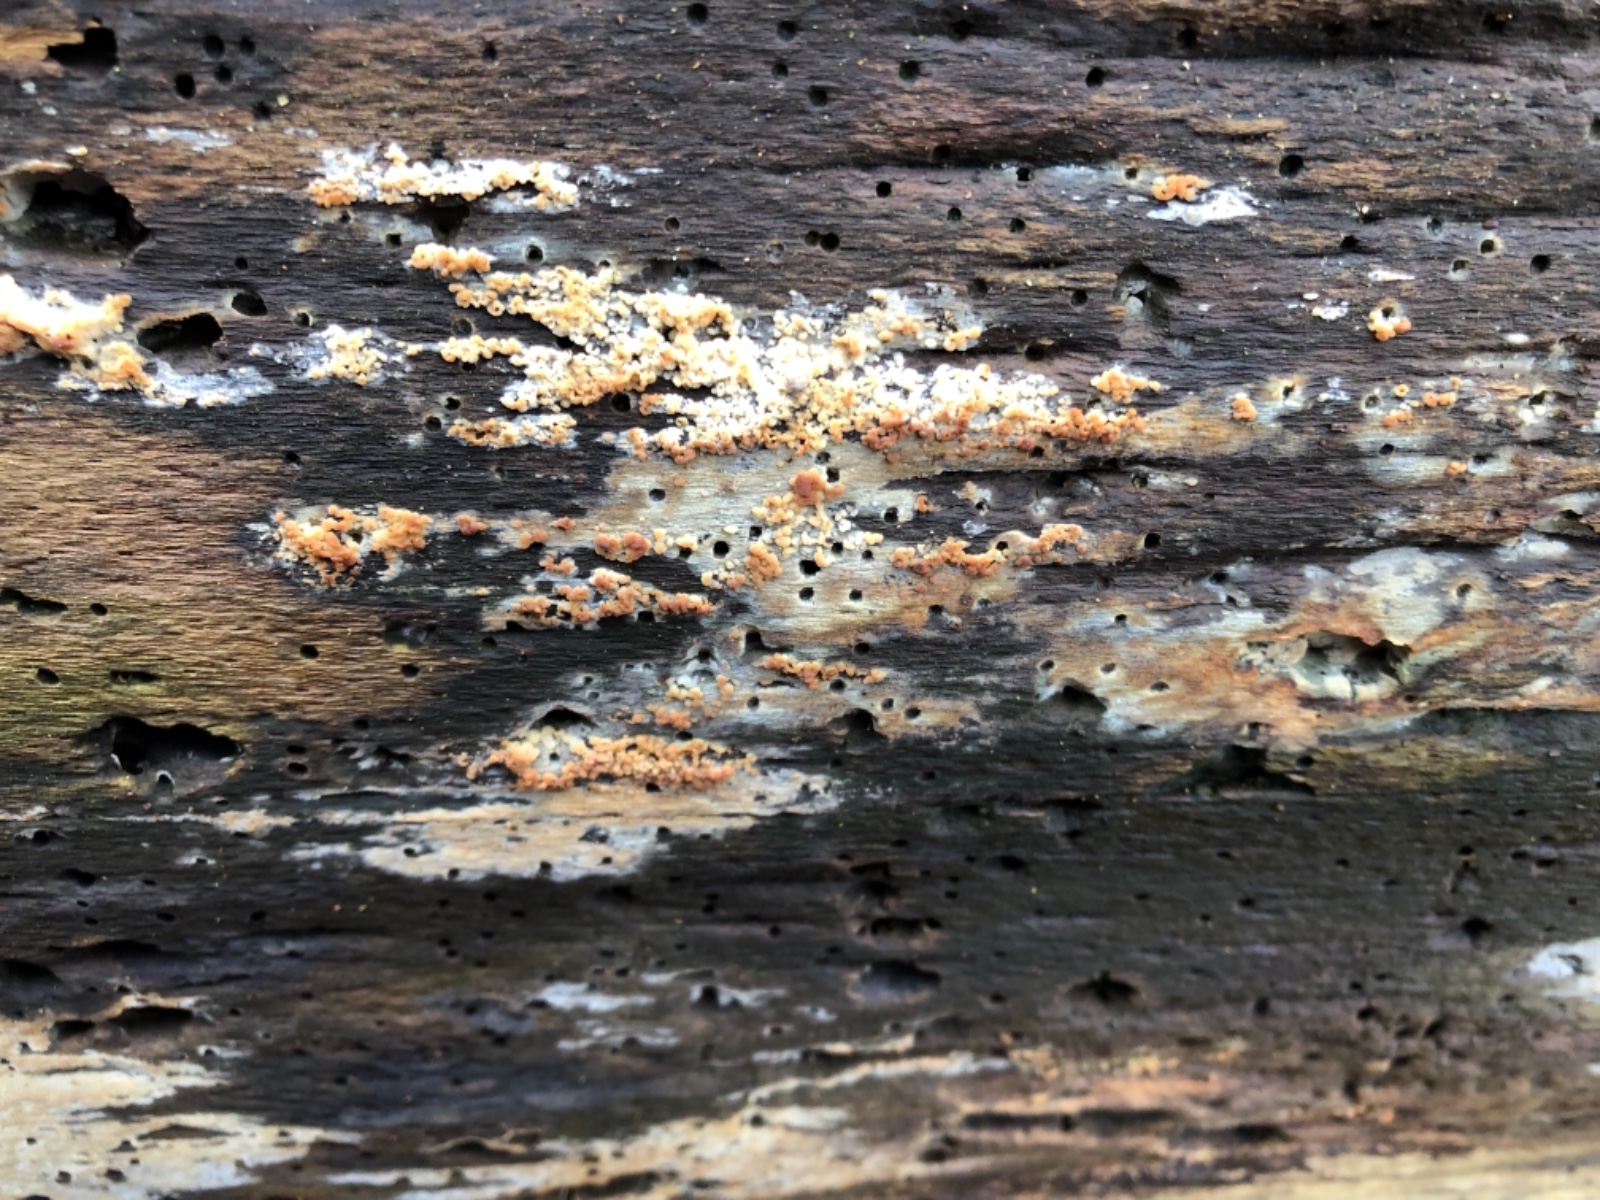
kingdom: Fungi
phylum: Basidiomycota
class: Tremellomycetes
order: Tremellales
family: Syzygosporaceae
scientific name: Syzygosporaceae
